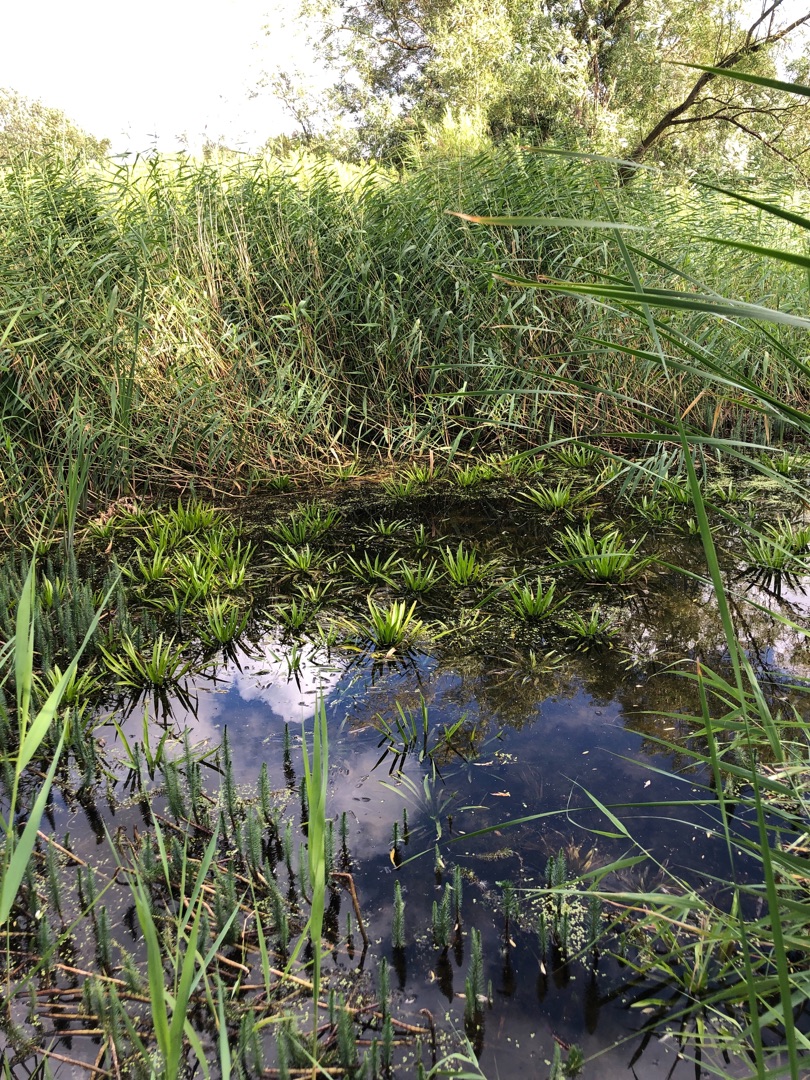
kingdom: Plantae
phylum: Tracheophyta
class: Liliopsida
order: Alismatales
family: Hydrocharitaceae
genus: Stratiotes
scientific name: Stratiotes aloides
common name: Krebseklo
